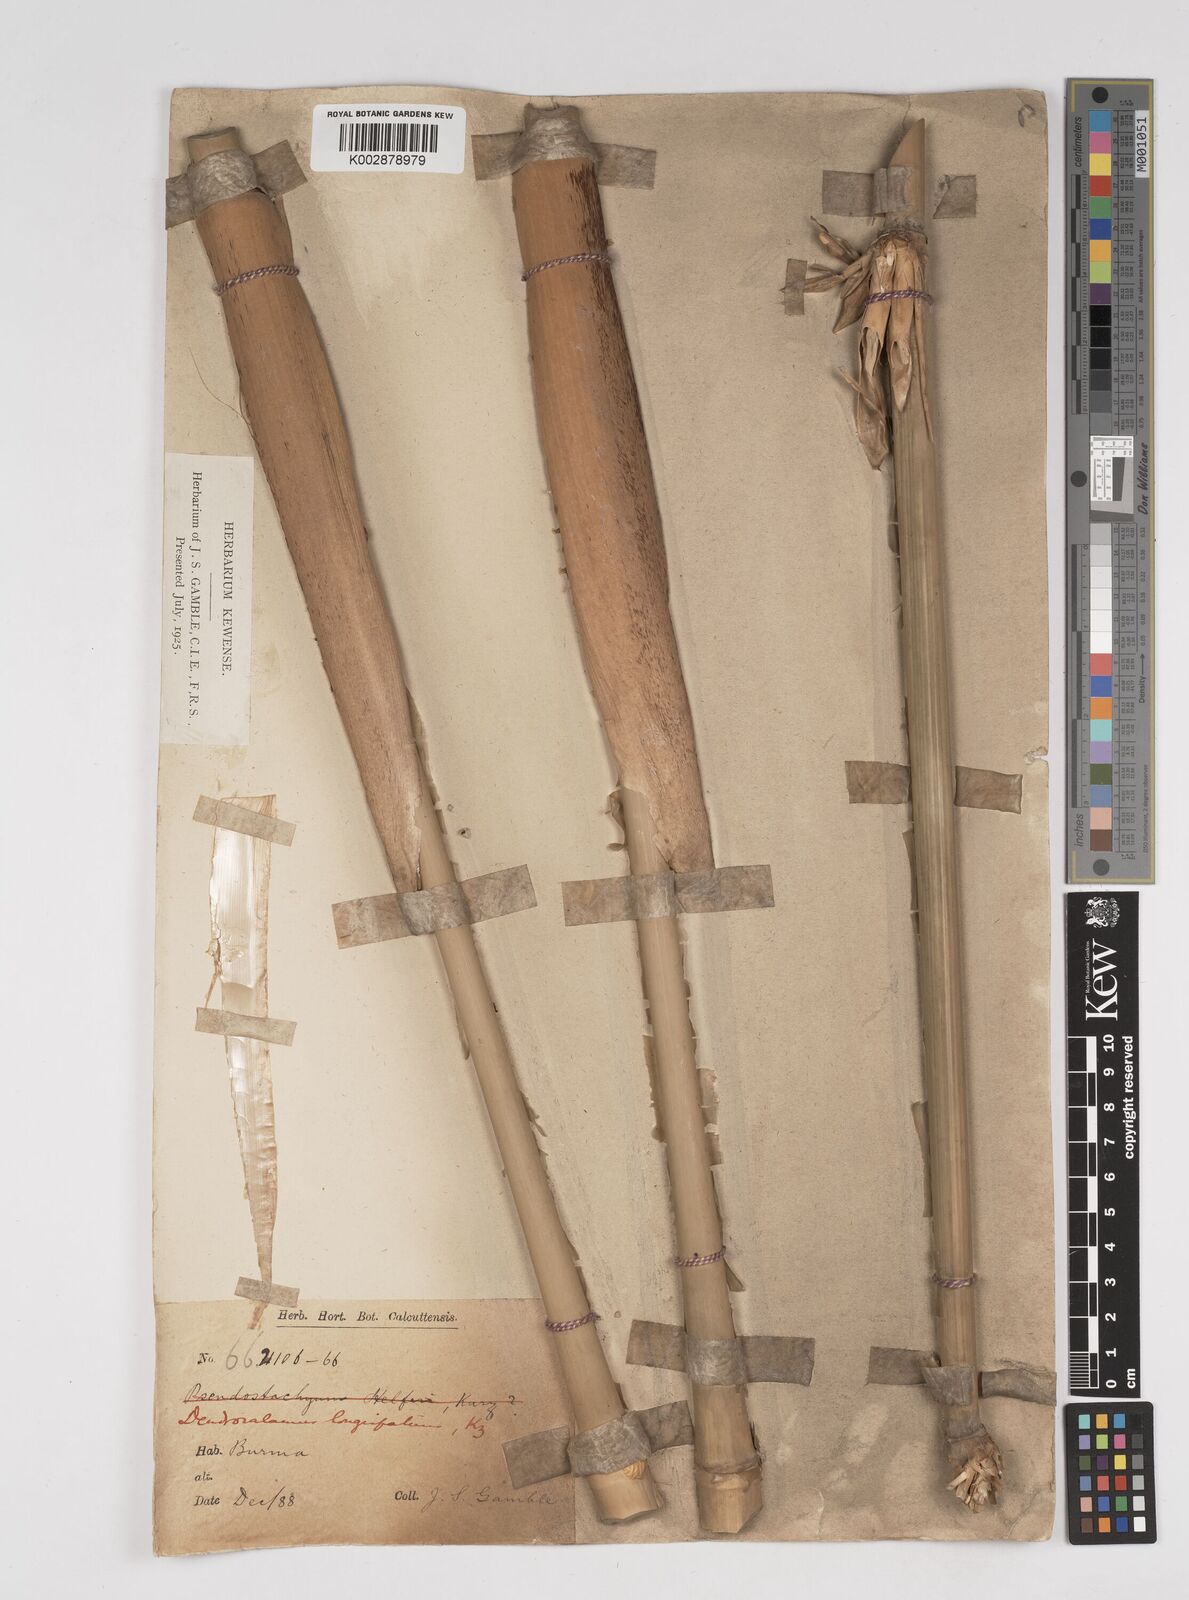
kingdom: Plantae
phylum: Tracheophyta
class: Liliopsida
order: Poales
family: Poaceae
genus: Dendrocalamus
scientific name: Dendrocalamus longispathus
